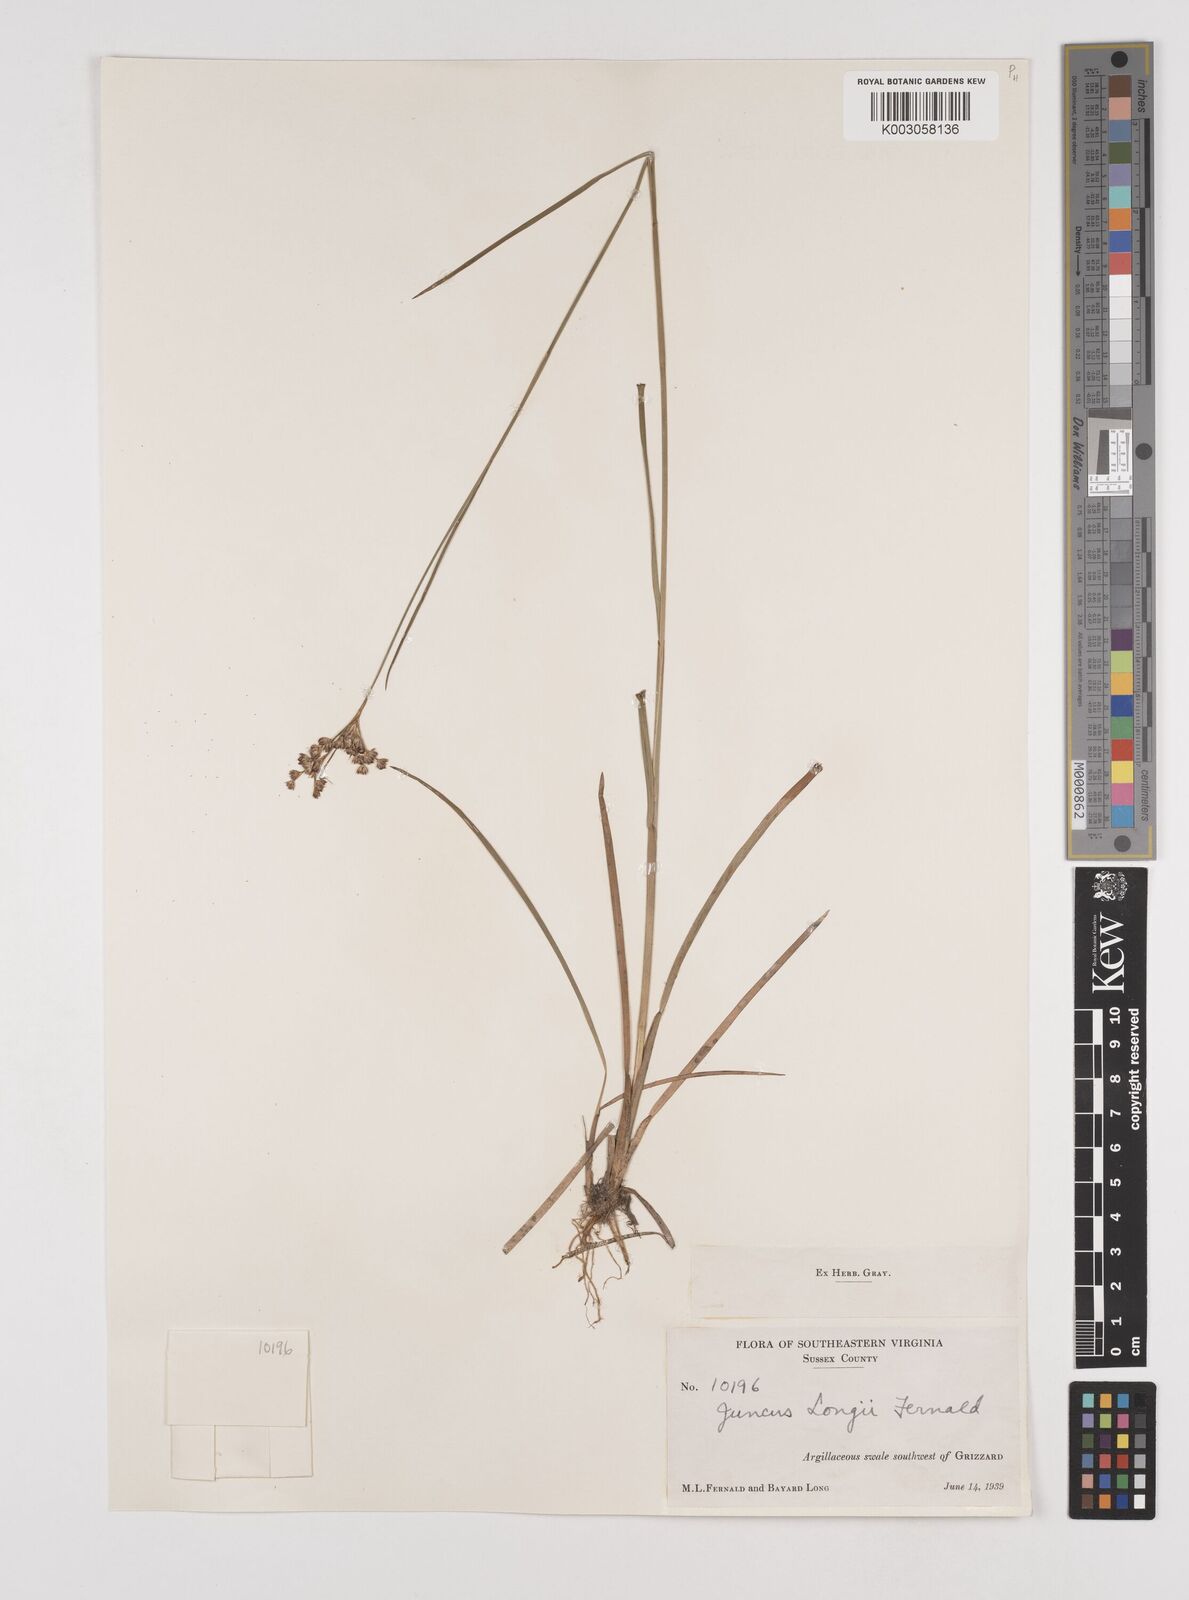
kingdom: Plantae
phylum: Tracheophyta
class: Liliopsida
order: Poales
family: Juncaceae
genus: Juncus
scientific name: Juncus longii
